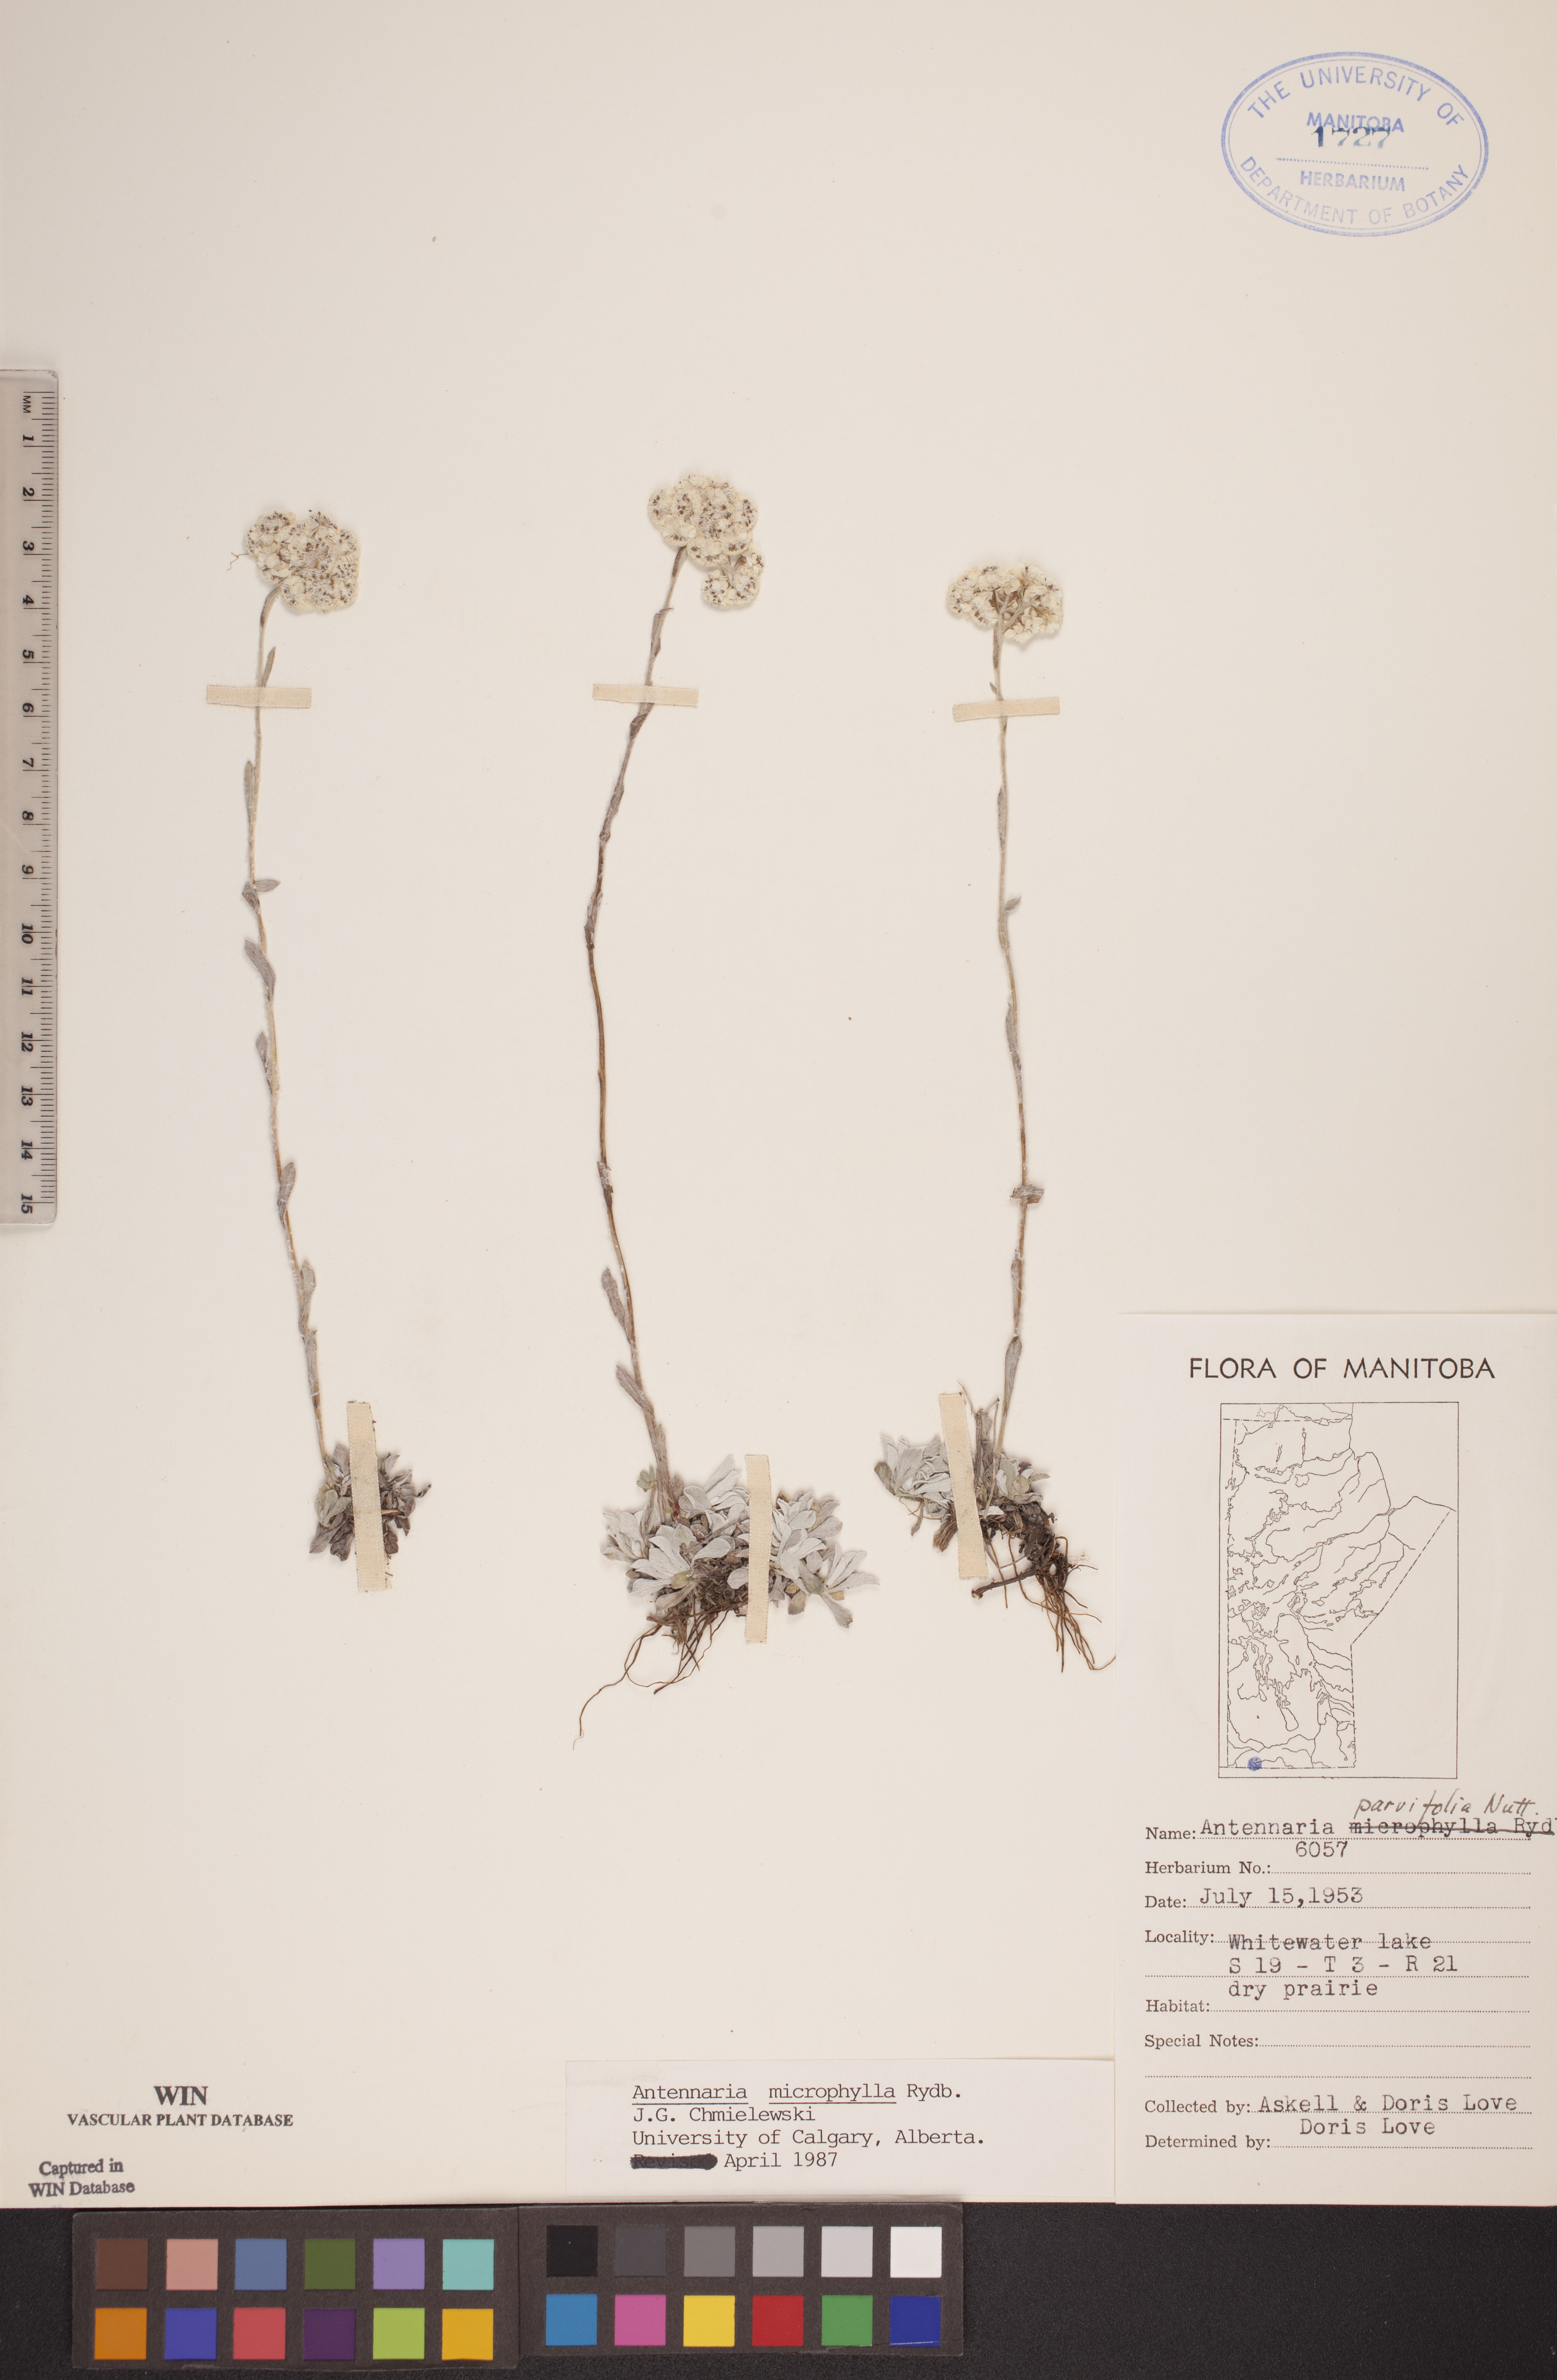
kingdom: Plantae
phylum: Tracheophyta
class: Magnoliopsida
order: Asterales
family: Asteraceae
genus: Antennaria
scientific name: Antennaria microphylla
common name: Littleleaf pussytoes
